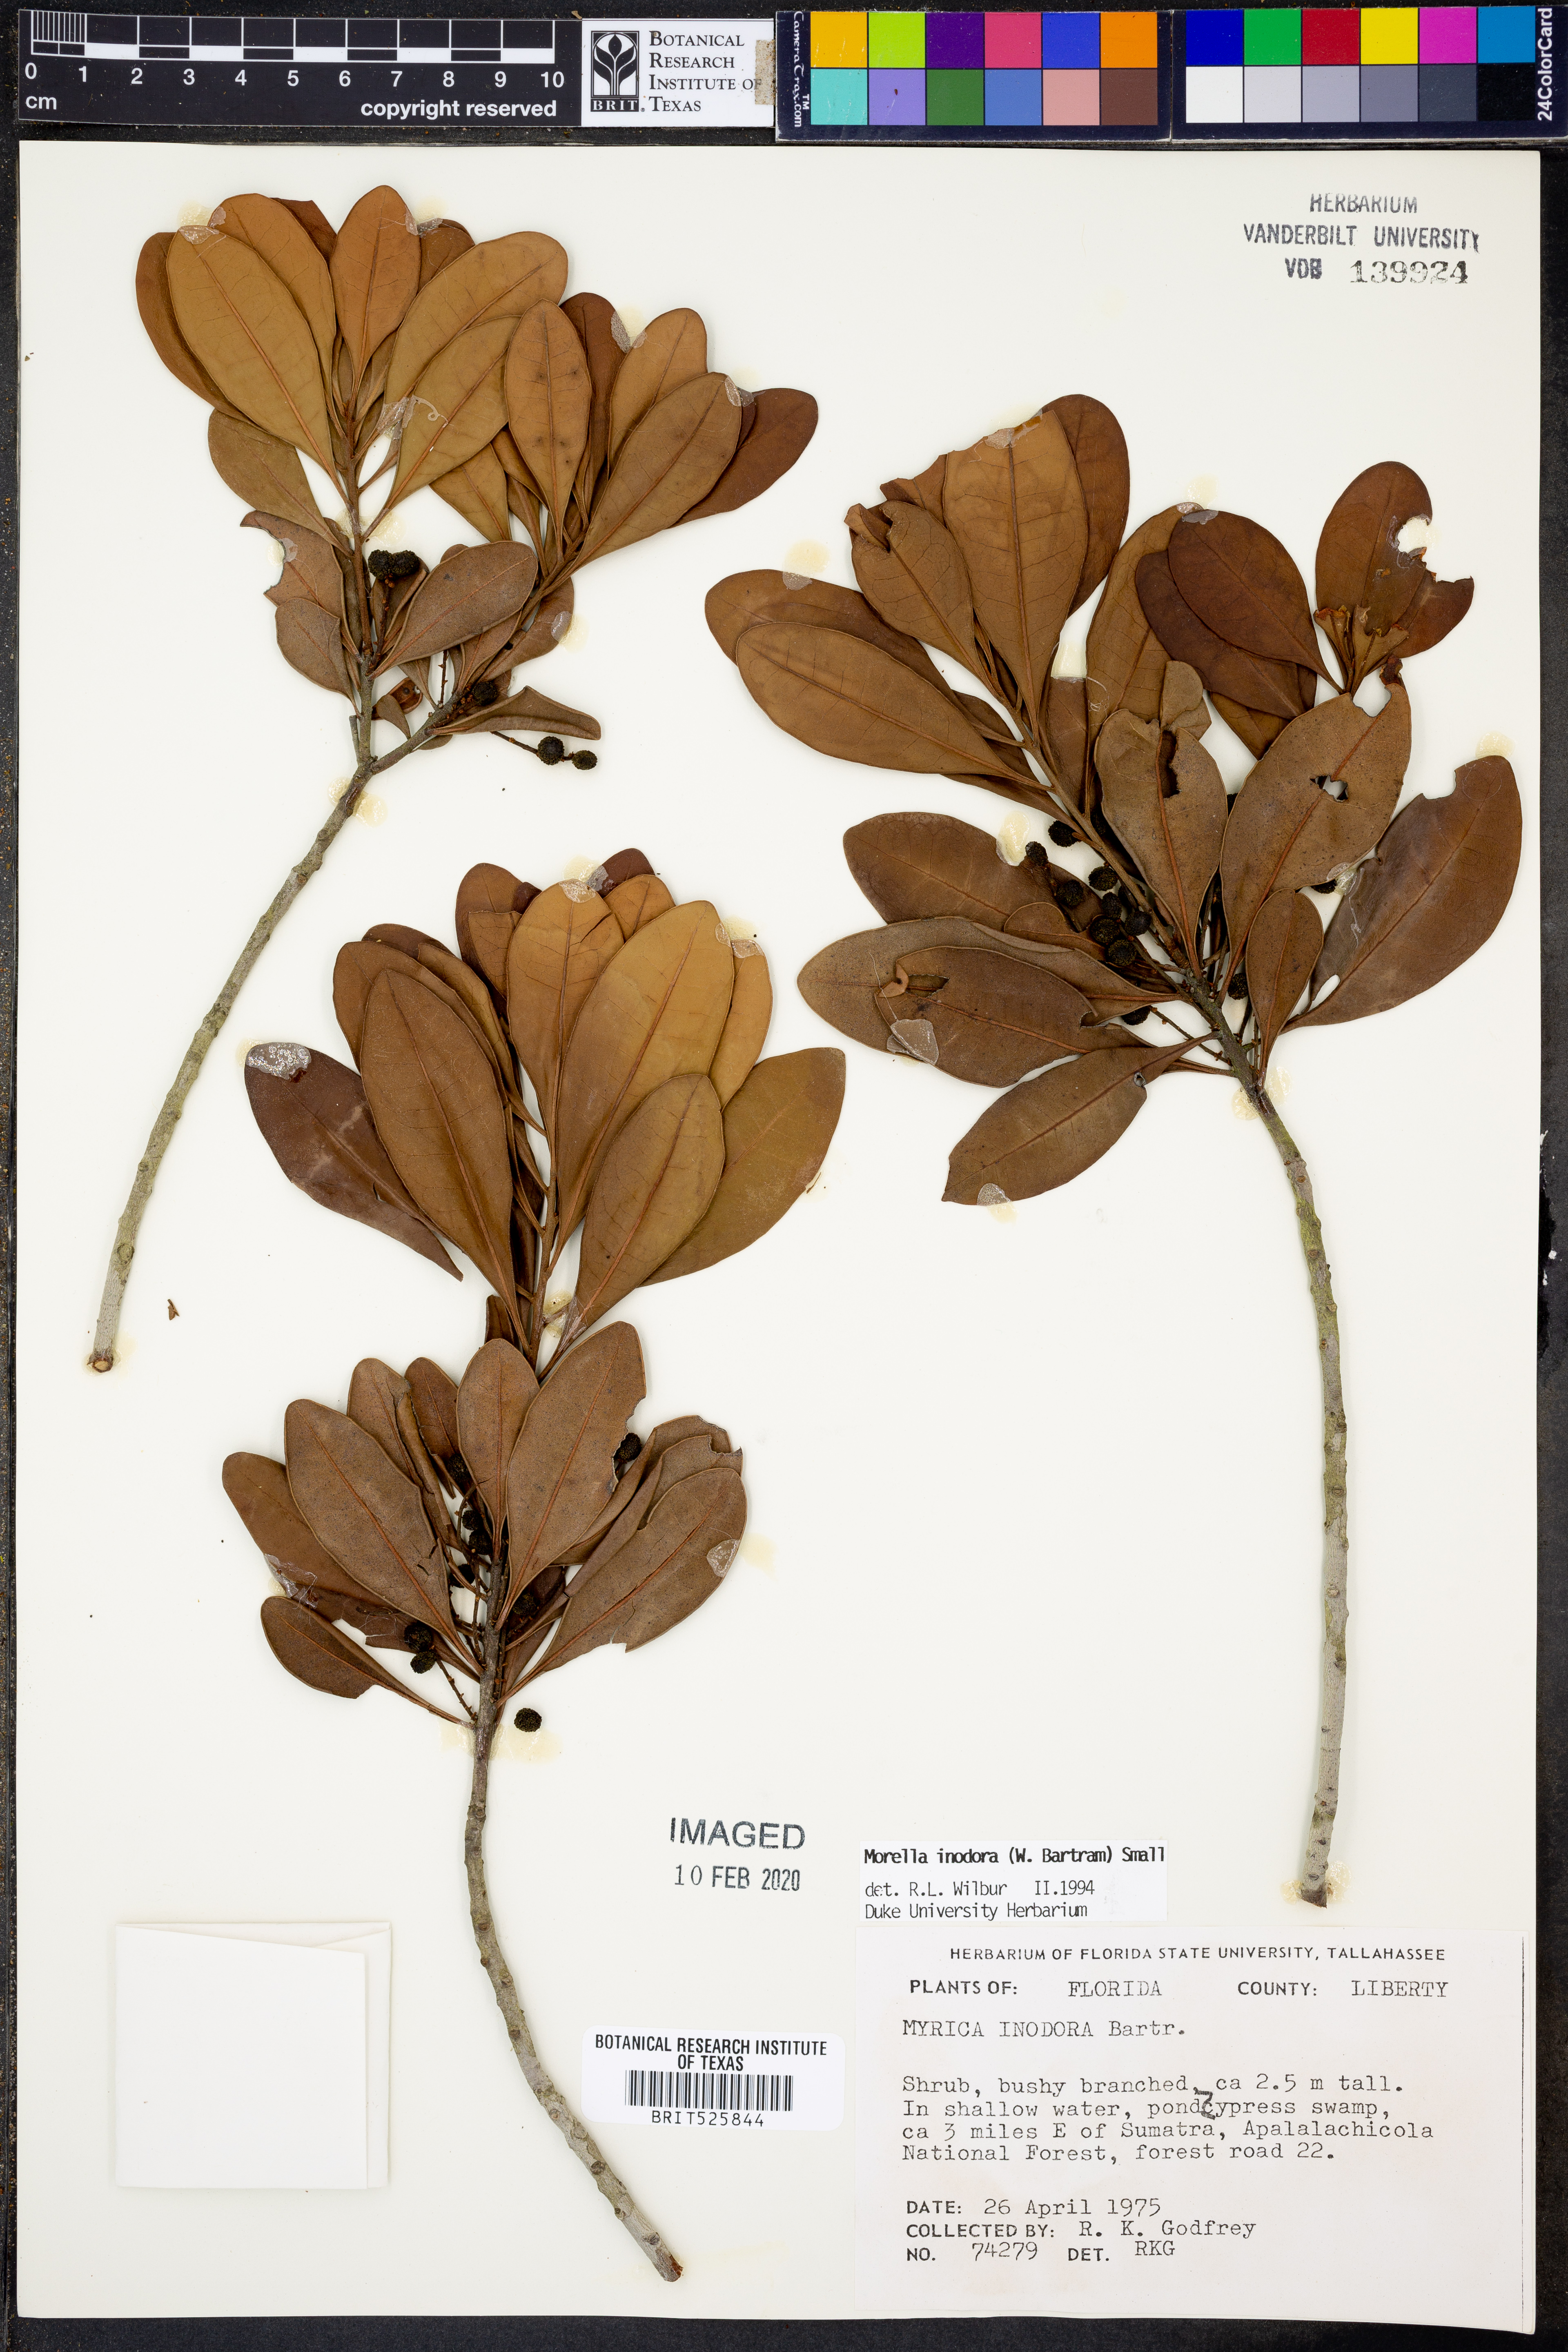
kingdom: Plantae
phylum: Tracheophyta
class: Magnoliopsida
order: Fagales
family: Myricaceae
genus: Morella
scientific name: Morella inodora
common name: Candle-berry
